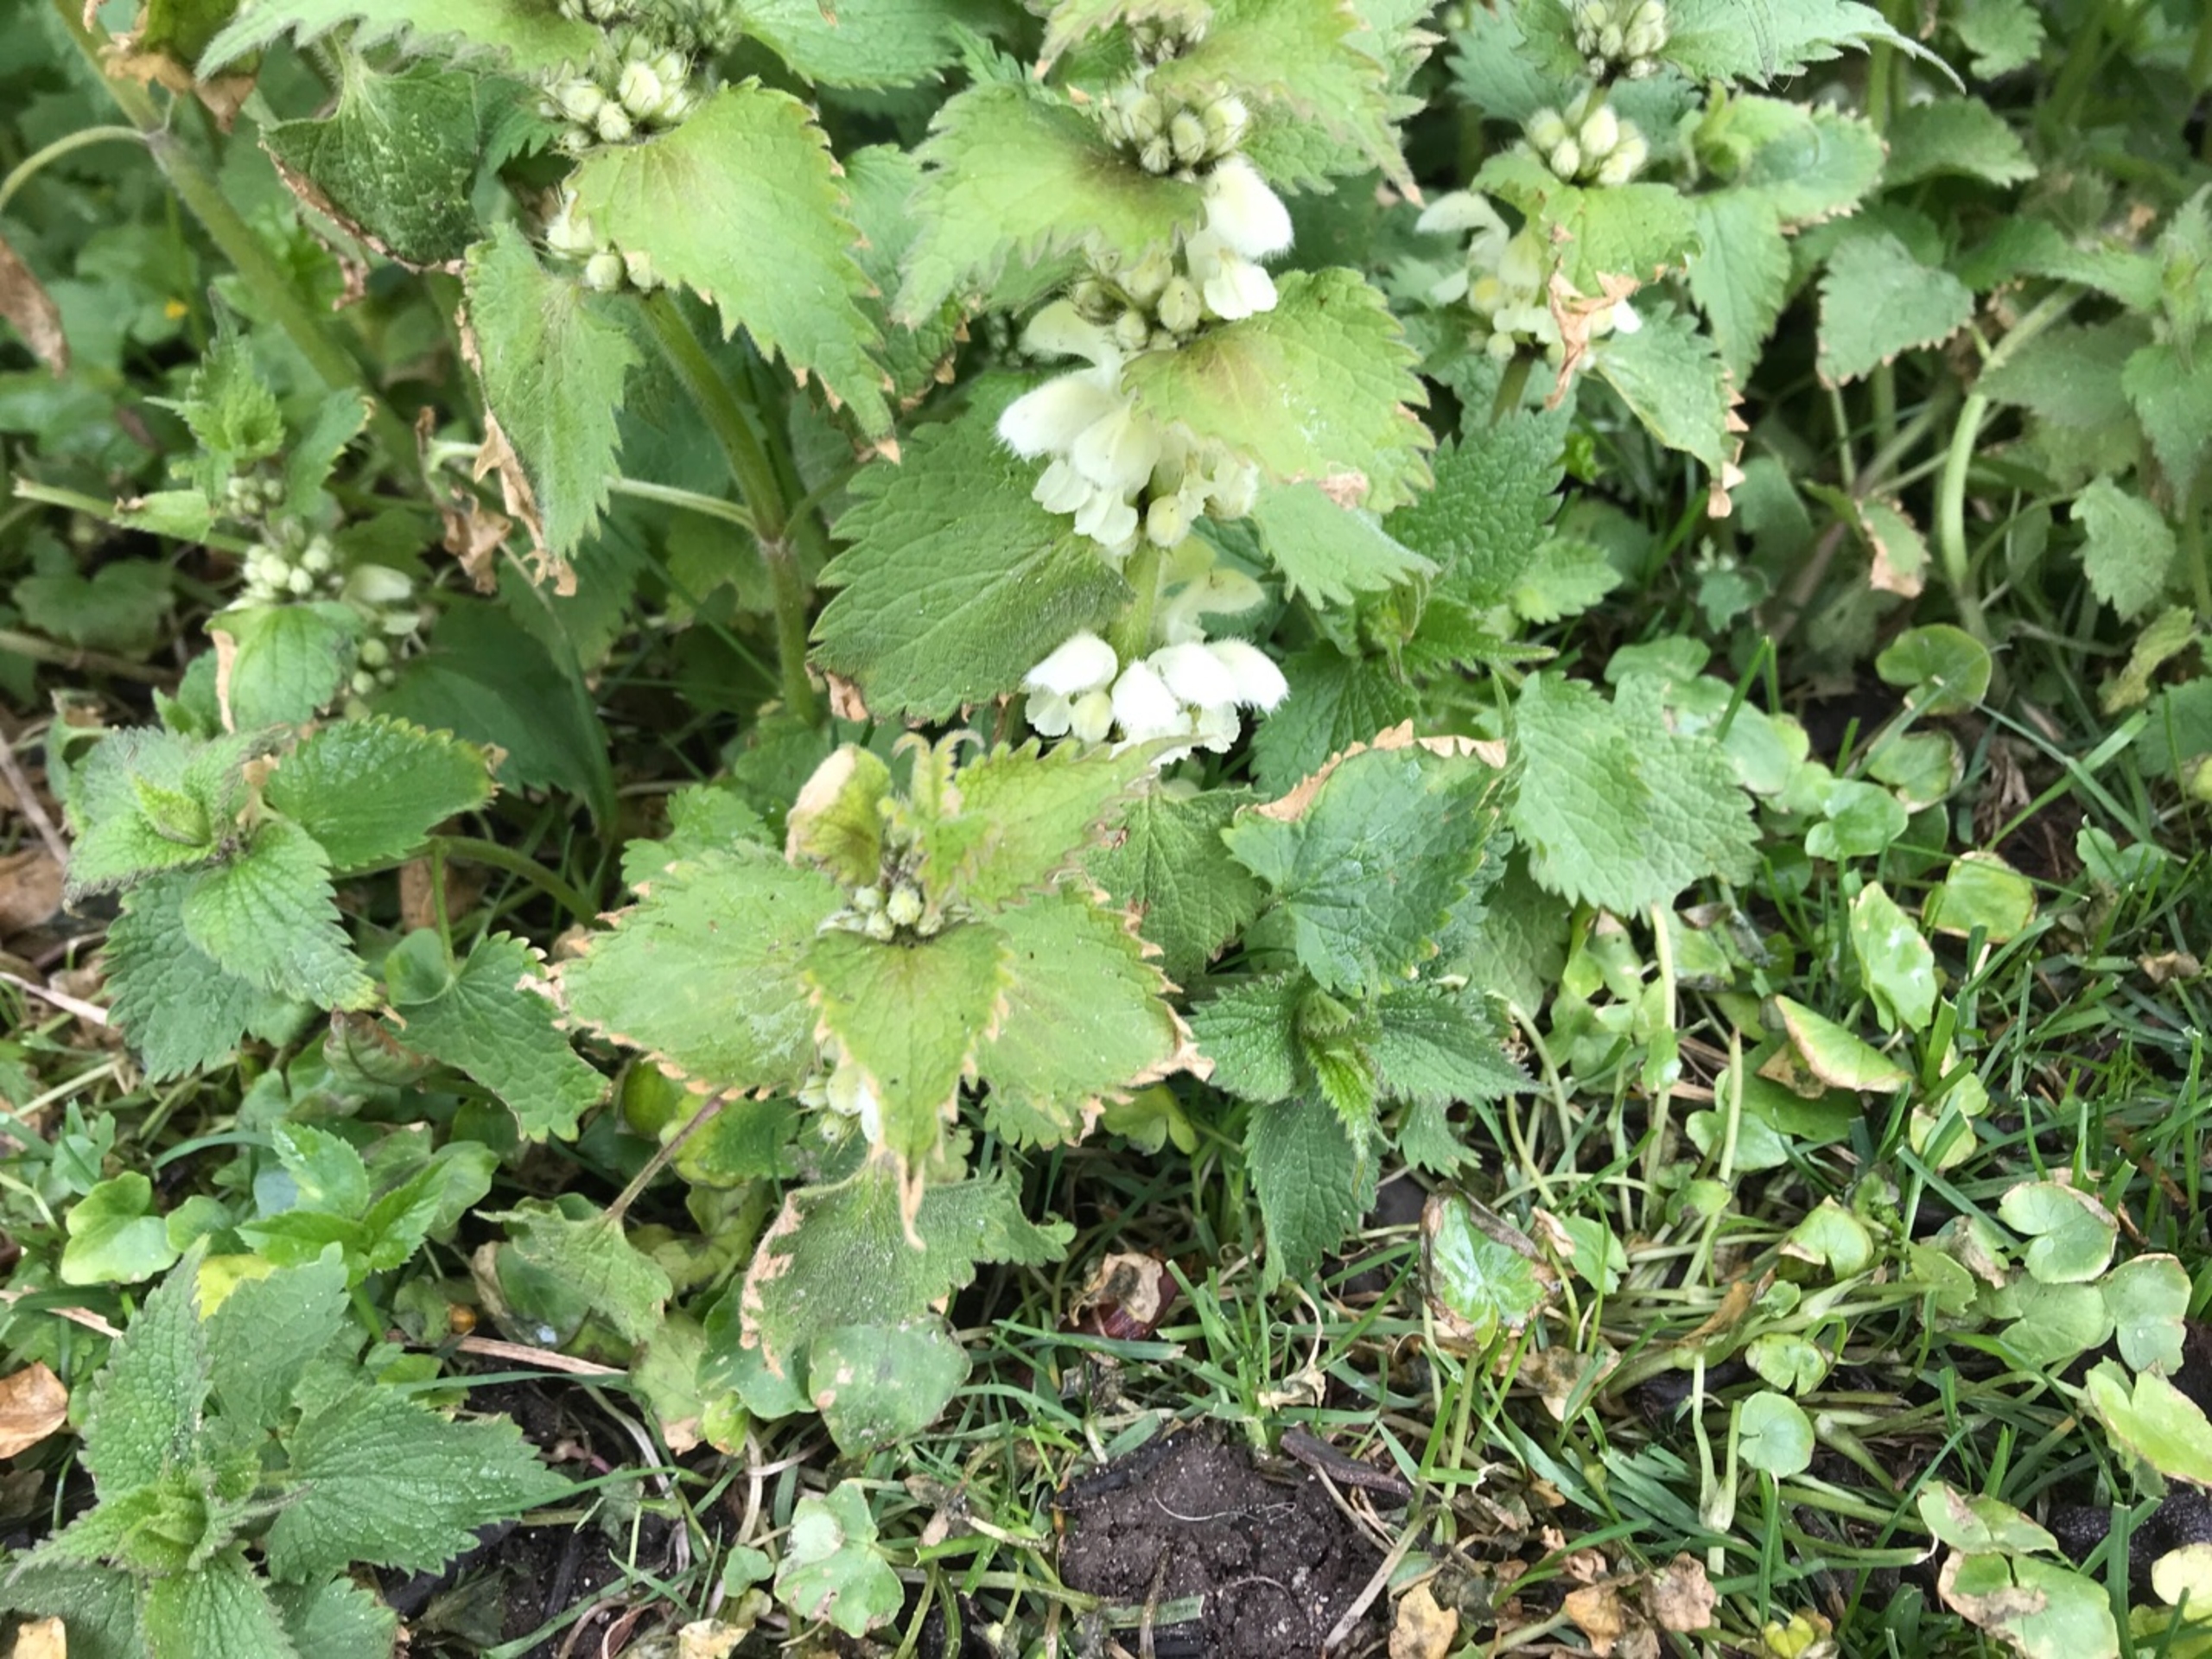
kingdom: Plantae
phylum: Tracheophyta
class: Magnoliopsida
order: Lamiales
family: Lamiaceae
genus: Lamium
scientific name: Lamium album
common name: Døvnælde
